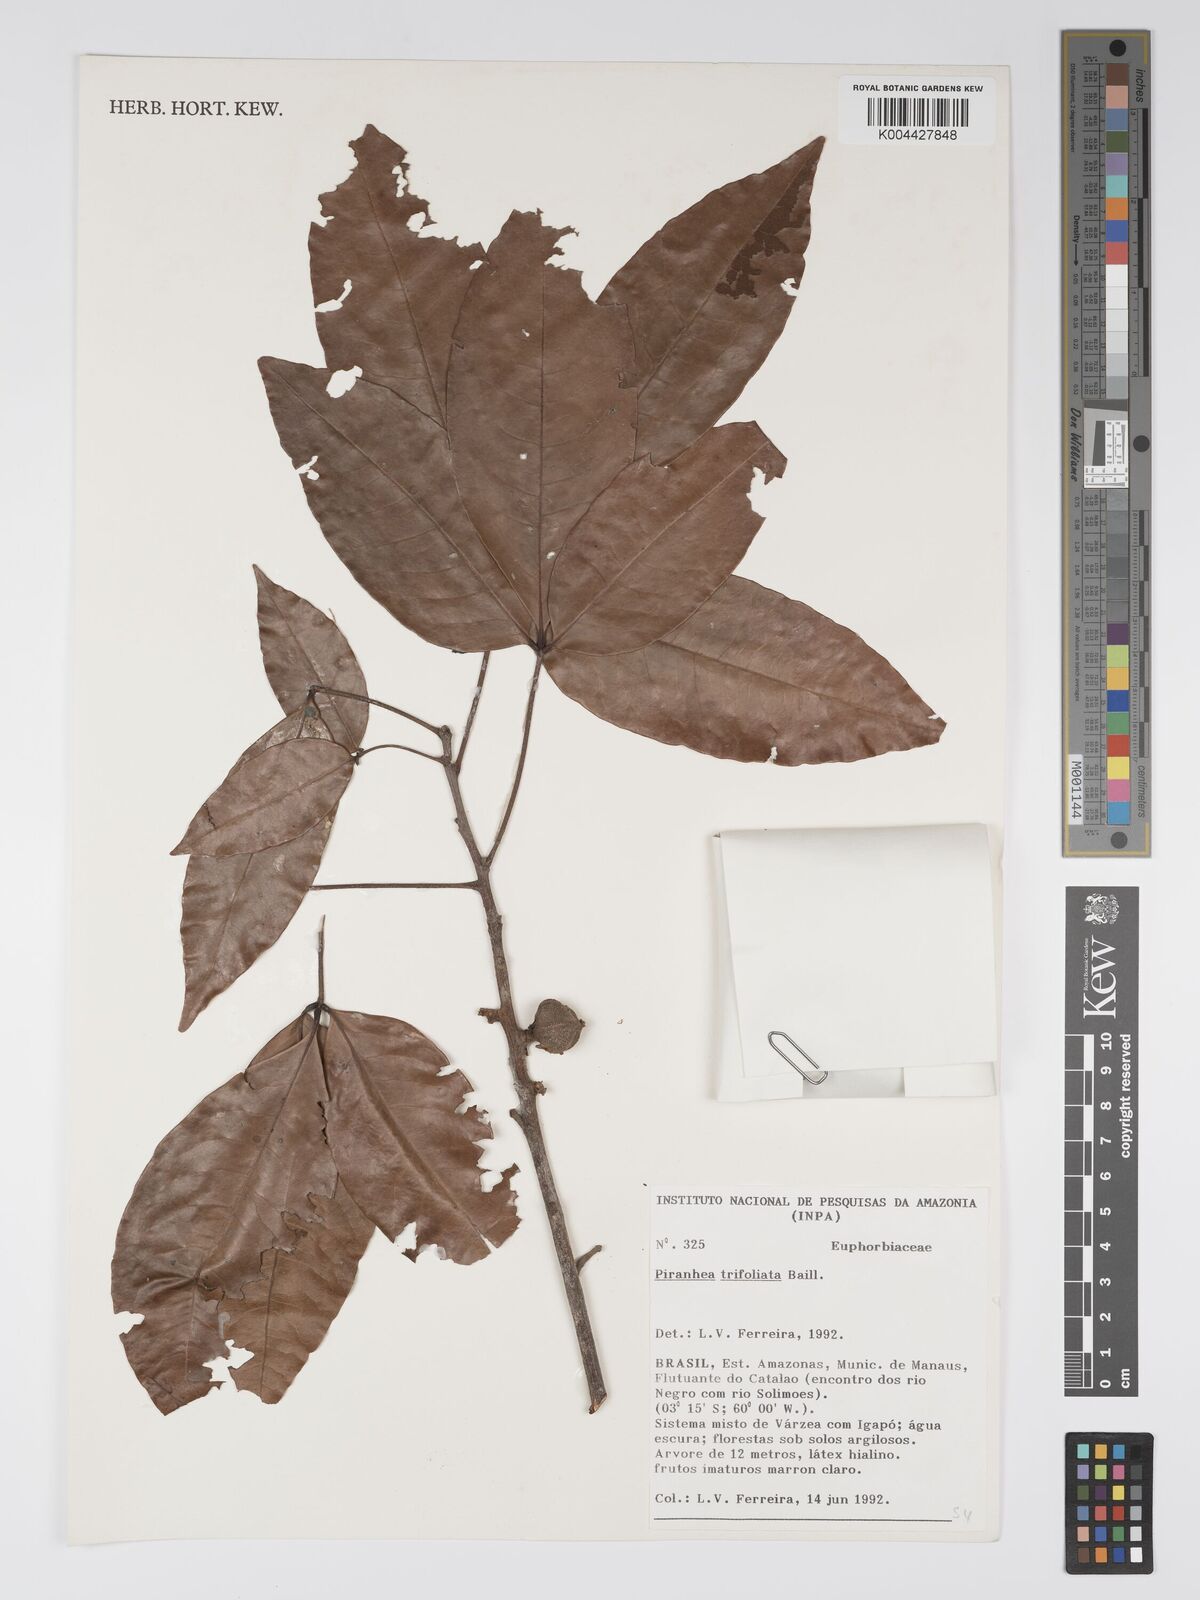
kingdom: Plantae
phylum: Tracheophyta
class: Magnoliopsida
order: Malpighiales
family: Picrodendraceae
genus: Piranhea
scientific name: Piranhea trifoliolata
